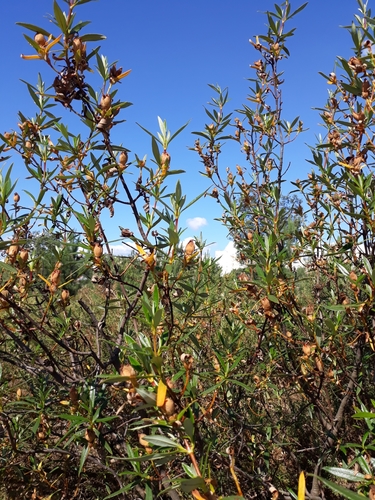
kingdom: Plantae
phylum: Tracheophyta
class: Magnoliopsida
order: Malvales
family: Cistaceae
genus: Cistus
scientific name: Cistus ladanifer
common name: Common gum cistus
